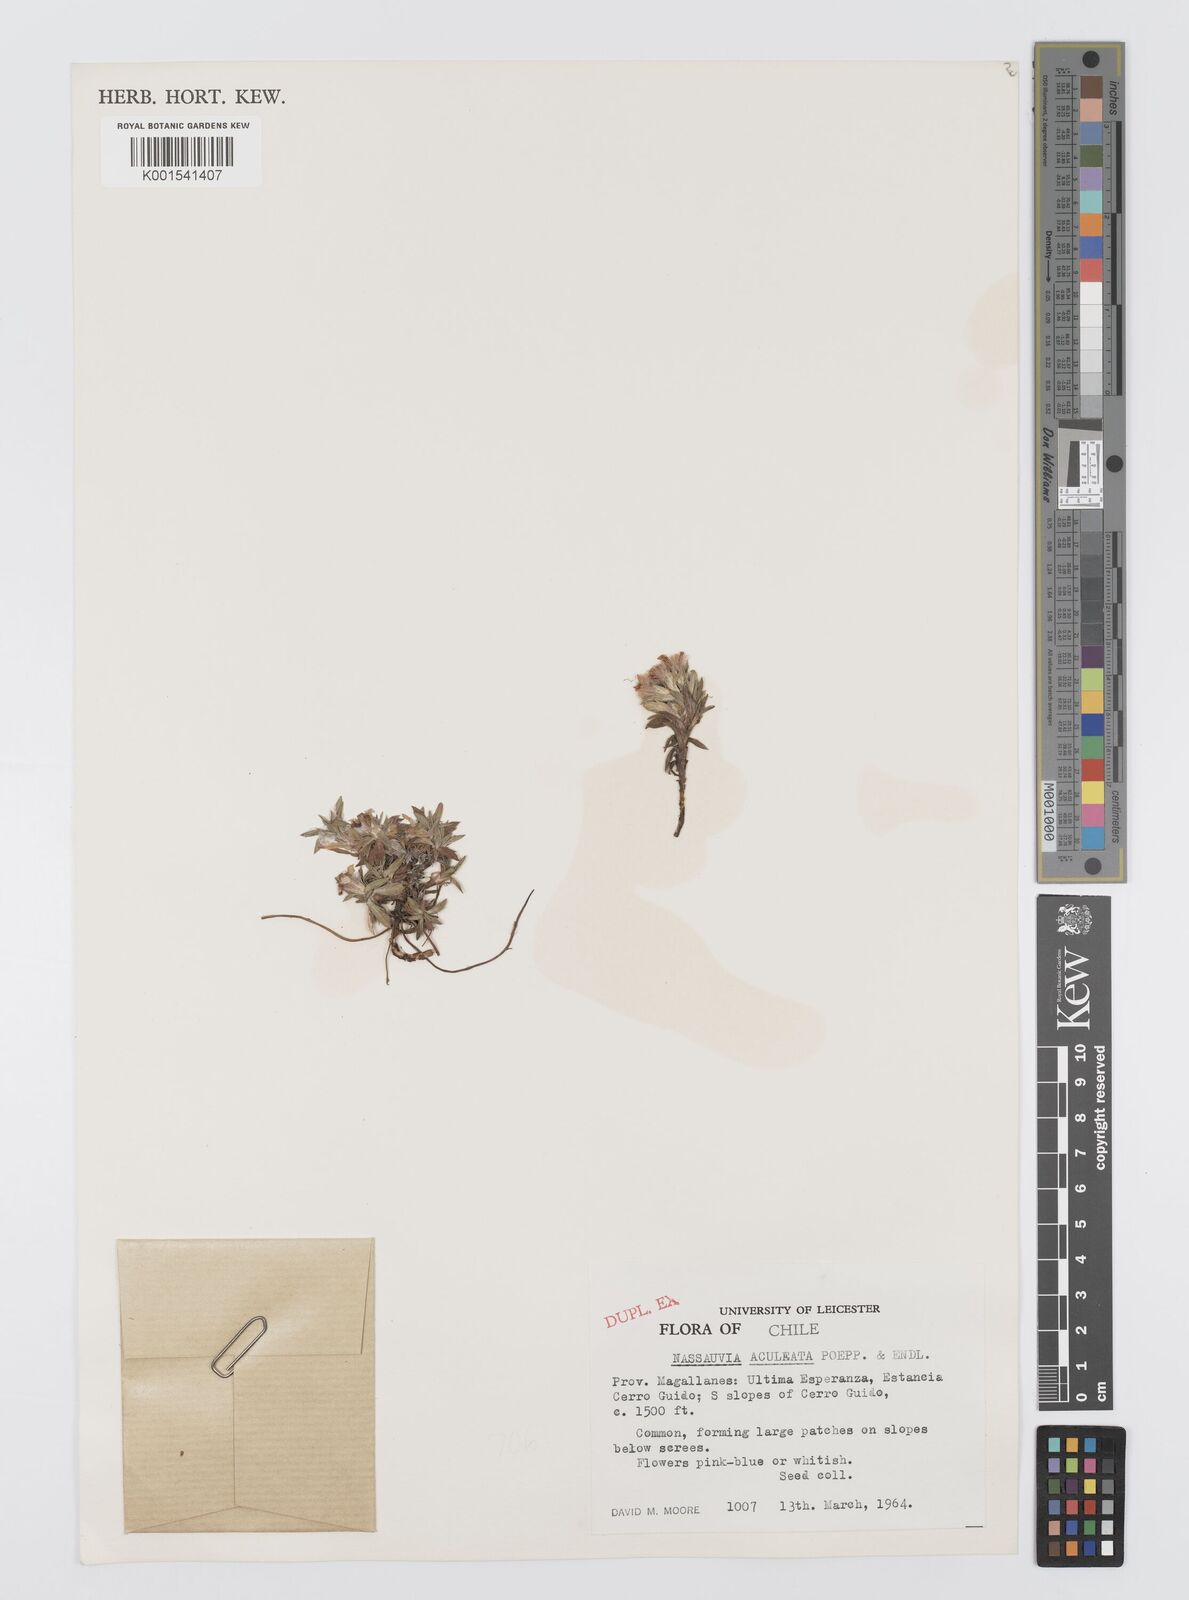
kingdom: Plantae
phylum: Tracheophyta
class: Magnoliopsida
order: Asterales
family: Asteraceae
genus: Nassauvia
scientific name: Nassauvia aculeata
